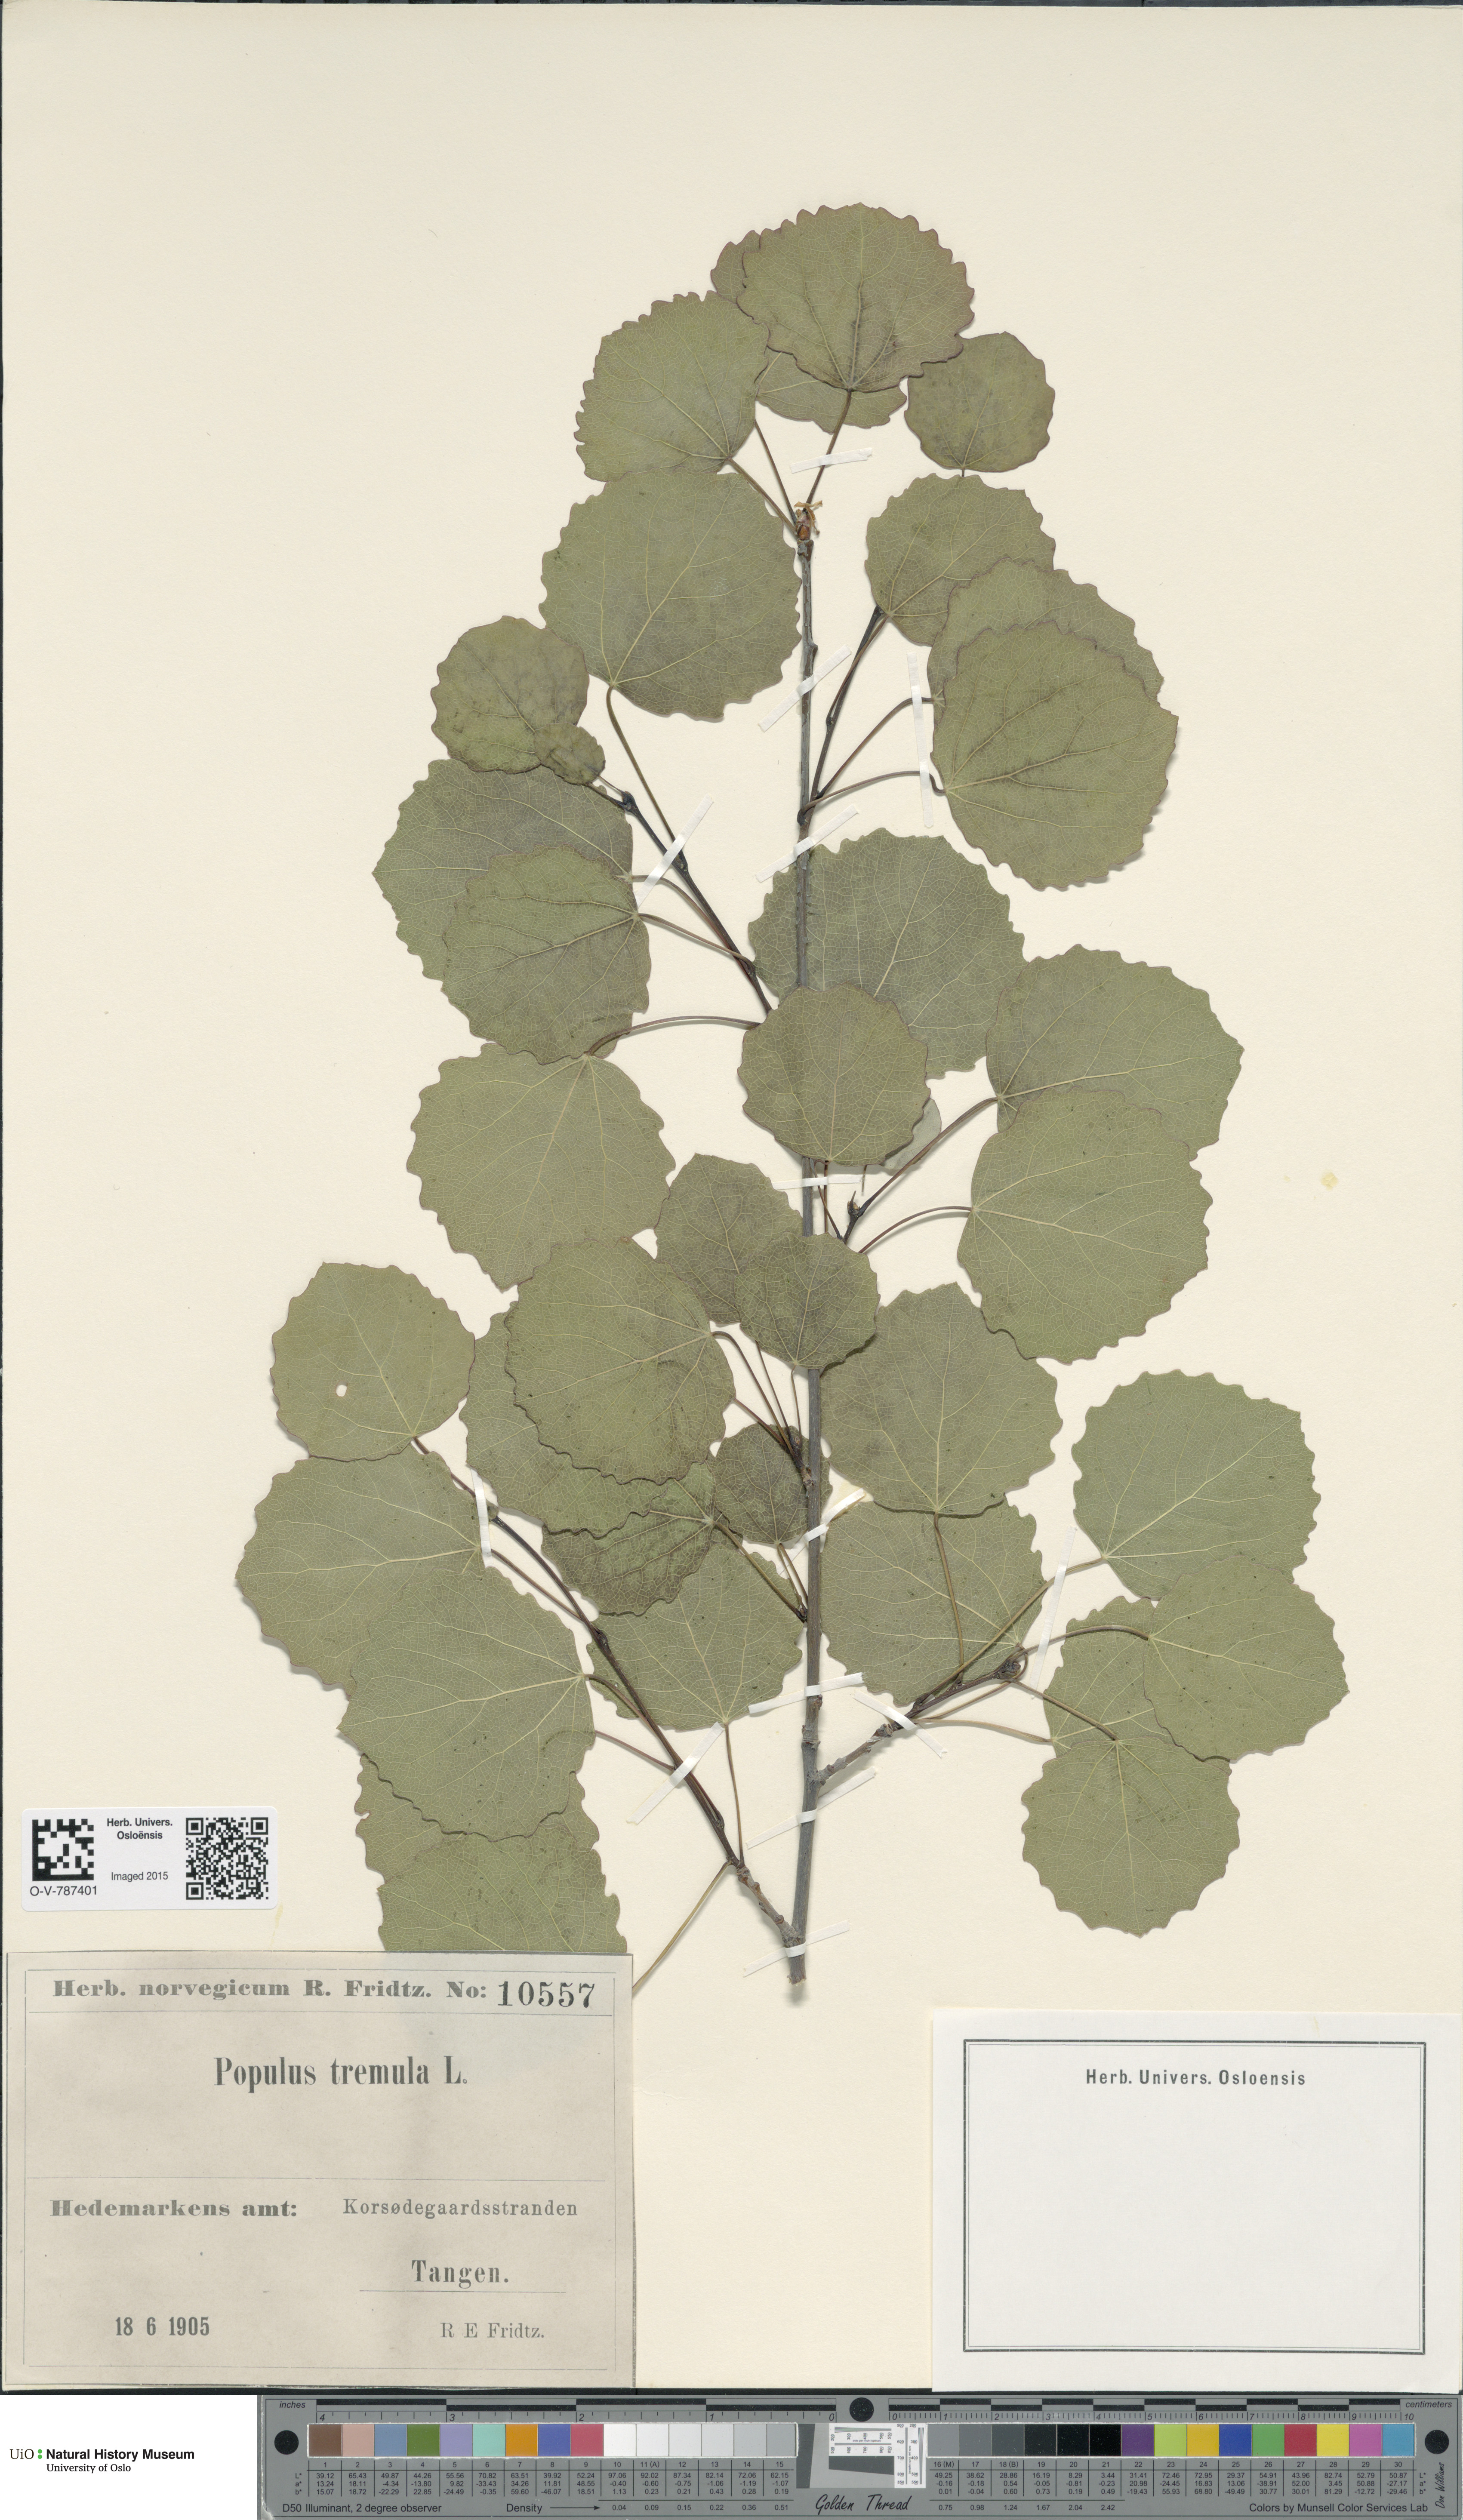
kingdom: Plantae
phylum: Tracheophyta
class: Magnoliopsida
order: Malpighiales
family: Salicaceae
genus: Populus
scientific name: Populus tremula
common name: European aspen
